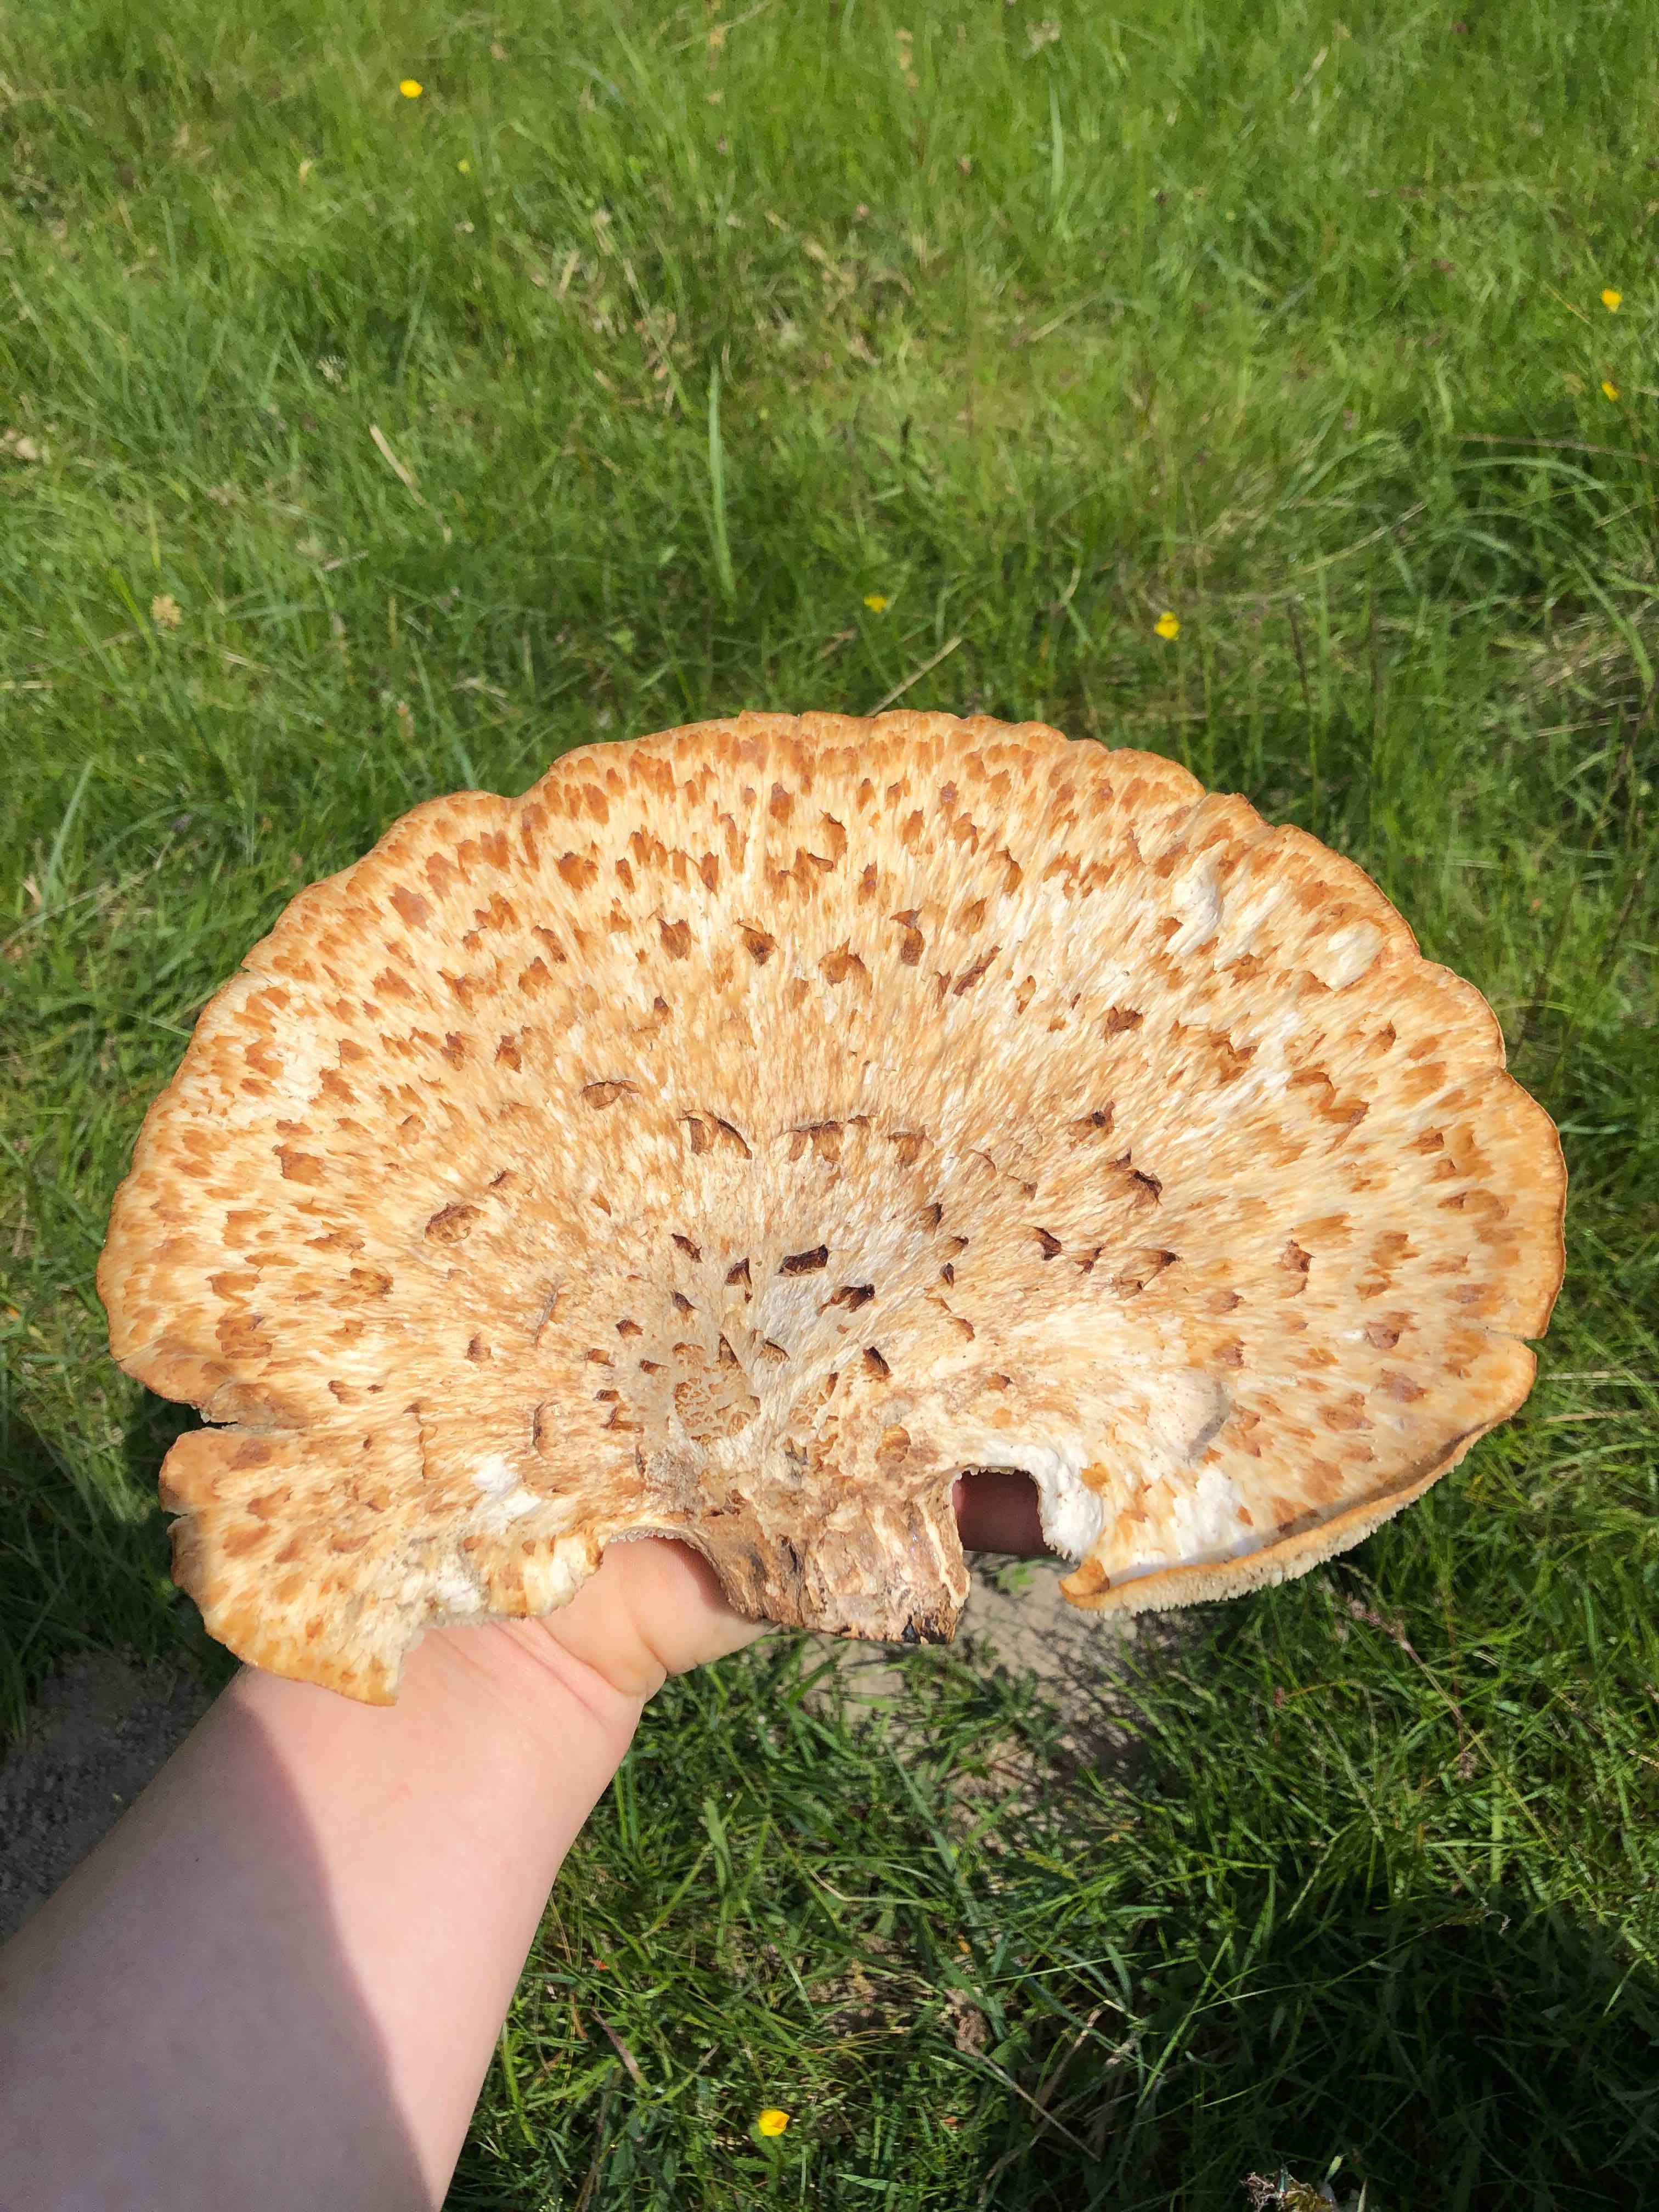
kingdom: Fungi
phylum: Basidiomycota
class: Agaricomycetes
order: Polyporales
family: Polyporaceae
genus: Cerioporus
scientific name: Cerioporus squamosus
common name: skællet stilkporesvamp
